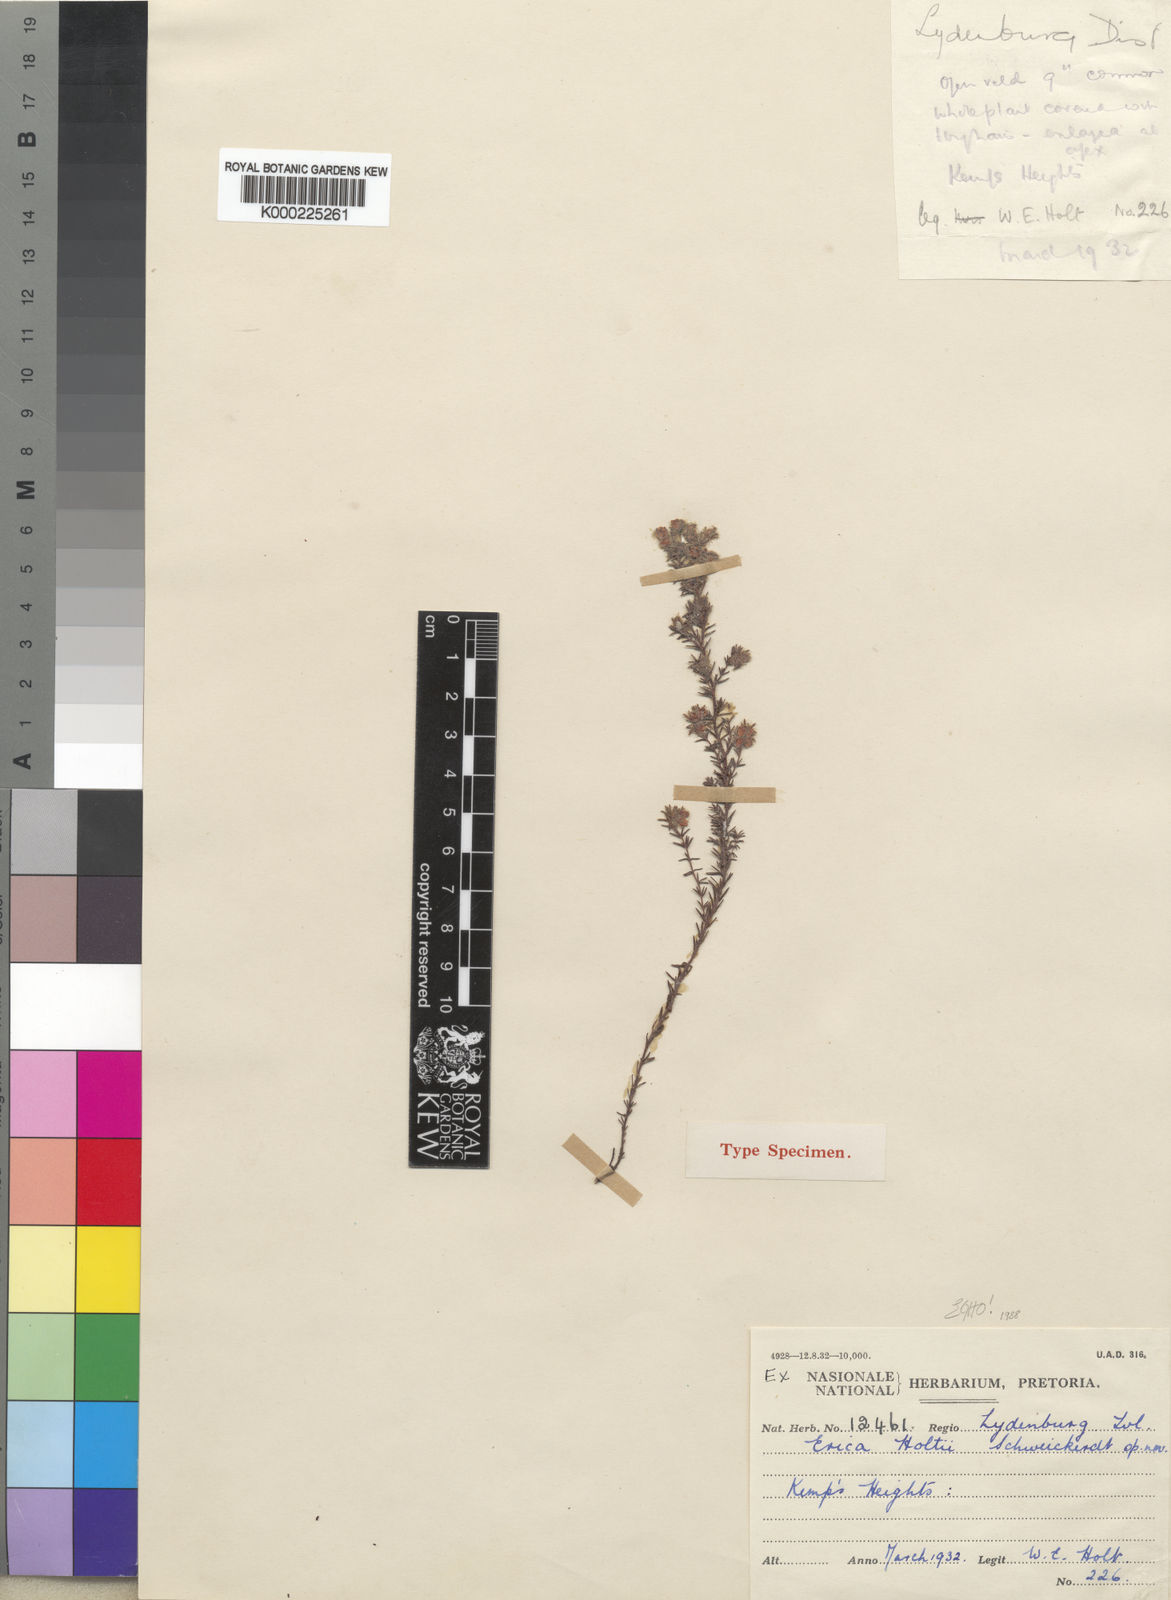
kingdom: Plantae
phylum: Tracheophyta
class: Magnoliopsida
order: Ericales
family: Ericaceae
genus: Erica
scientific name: Erica holtii
